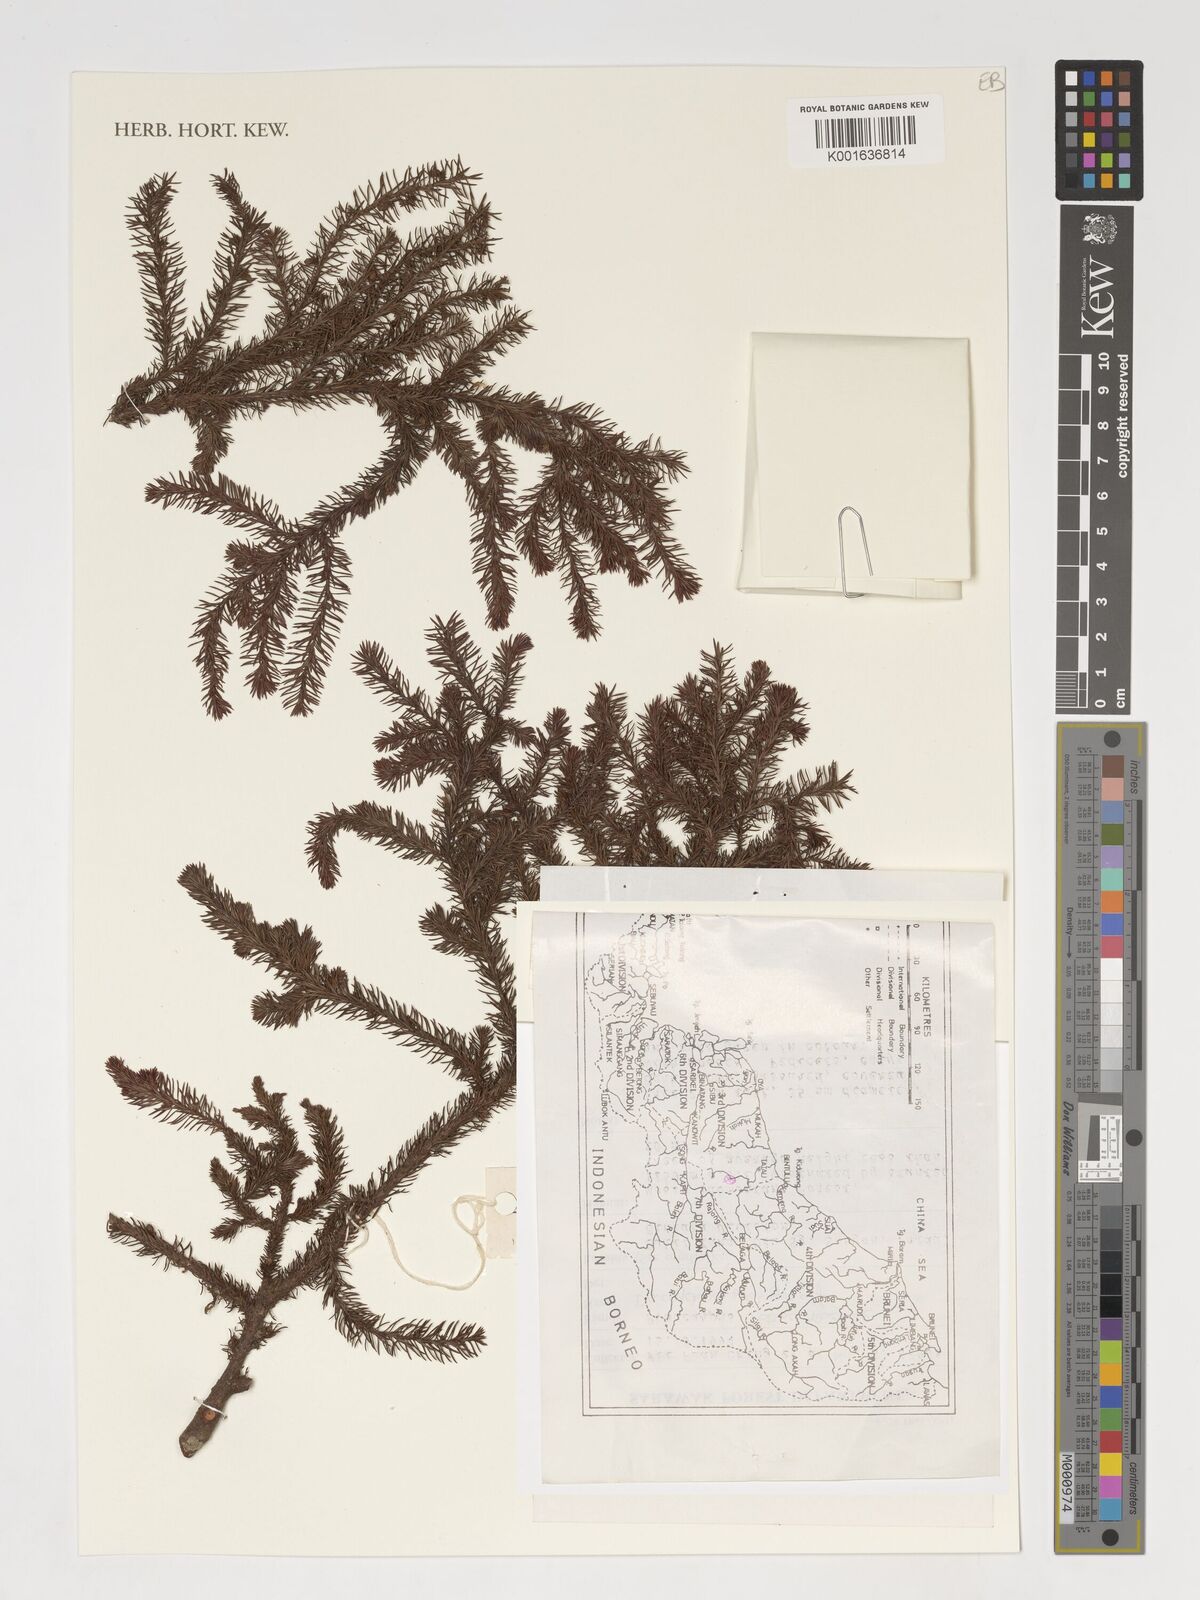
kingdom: Plantae
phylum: Tracheophyta
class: Pinopsida
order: Pinales
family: Podocarpaceae
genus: Dacrydium
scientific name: Dacrydium
